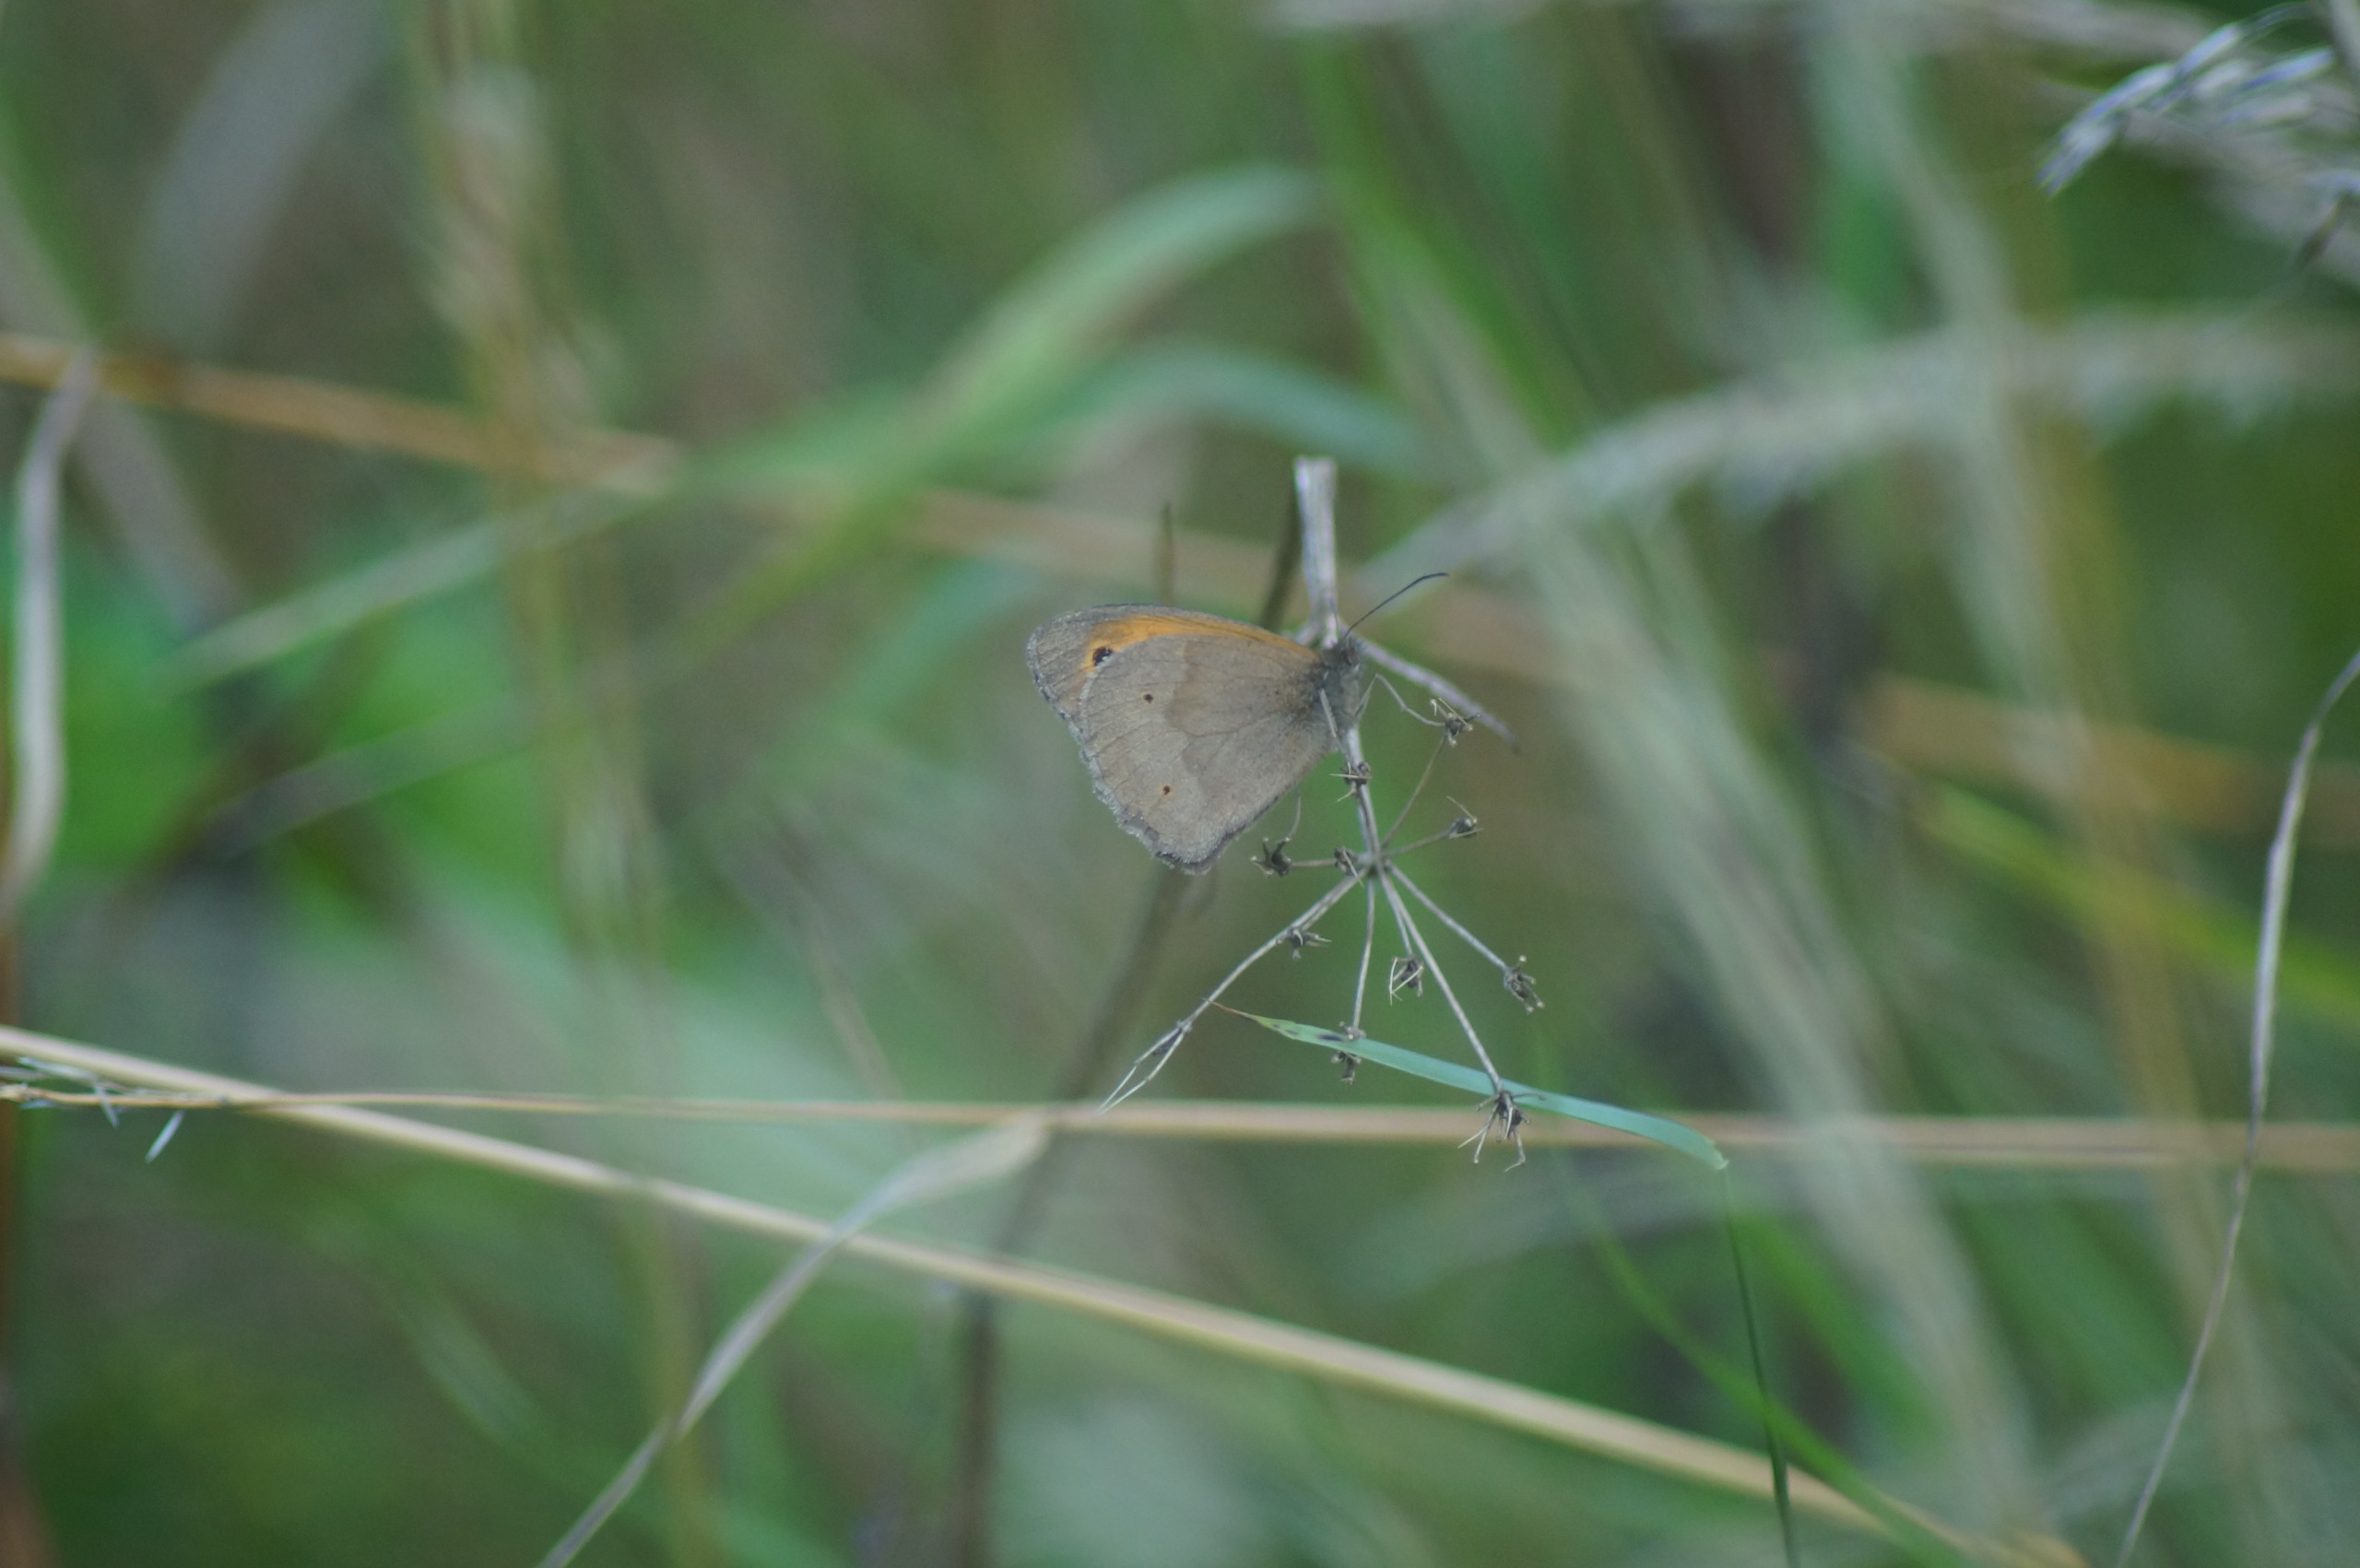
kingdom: Animalia
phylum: Arthropoda
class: Insecta
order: Lepidoptera
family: Nymphalidae
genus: Maniola
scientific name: Maniola jurtina
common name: Græsrandøje
